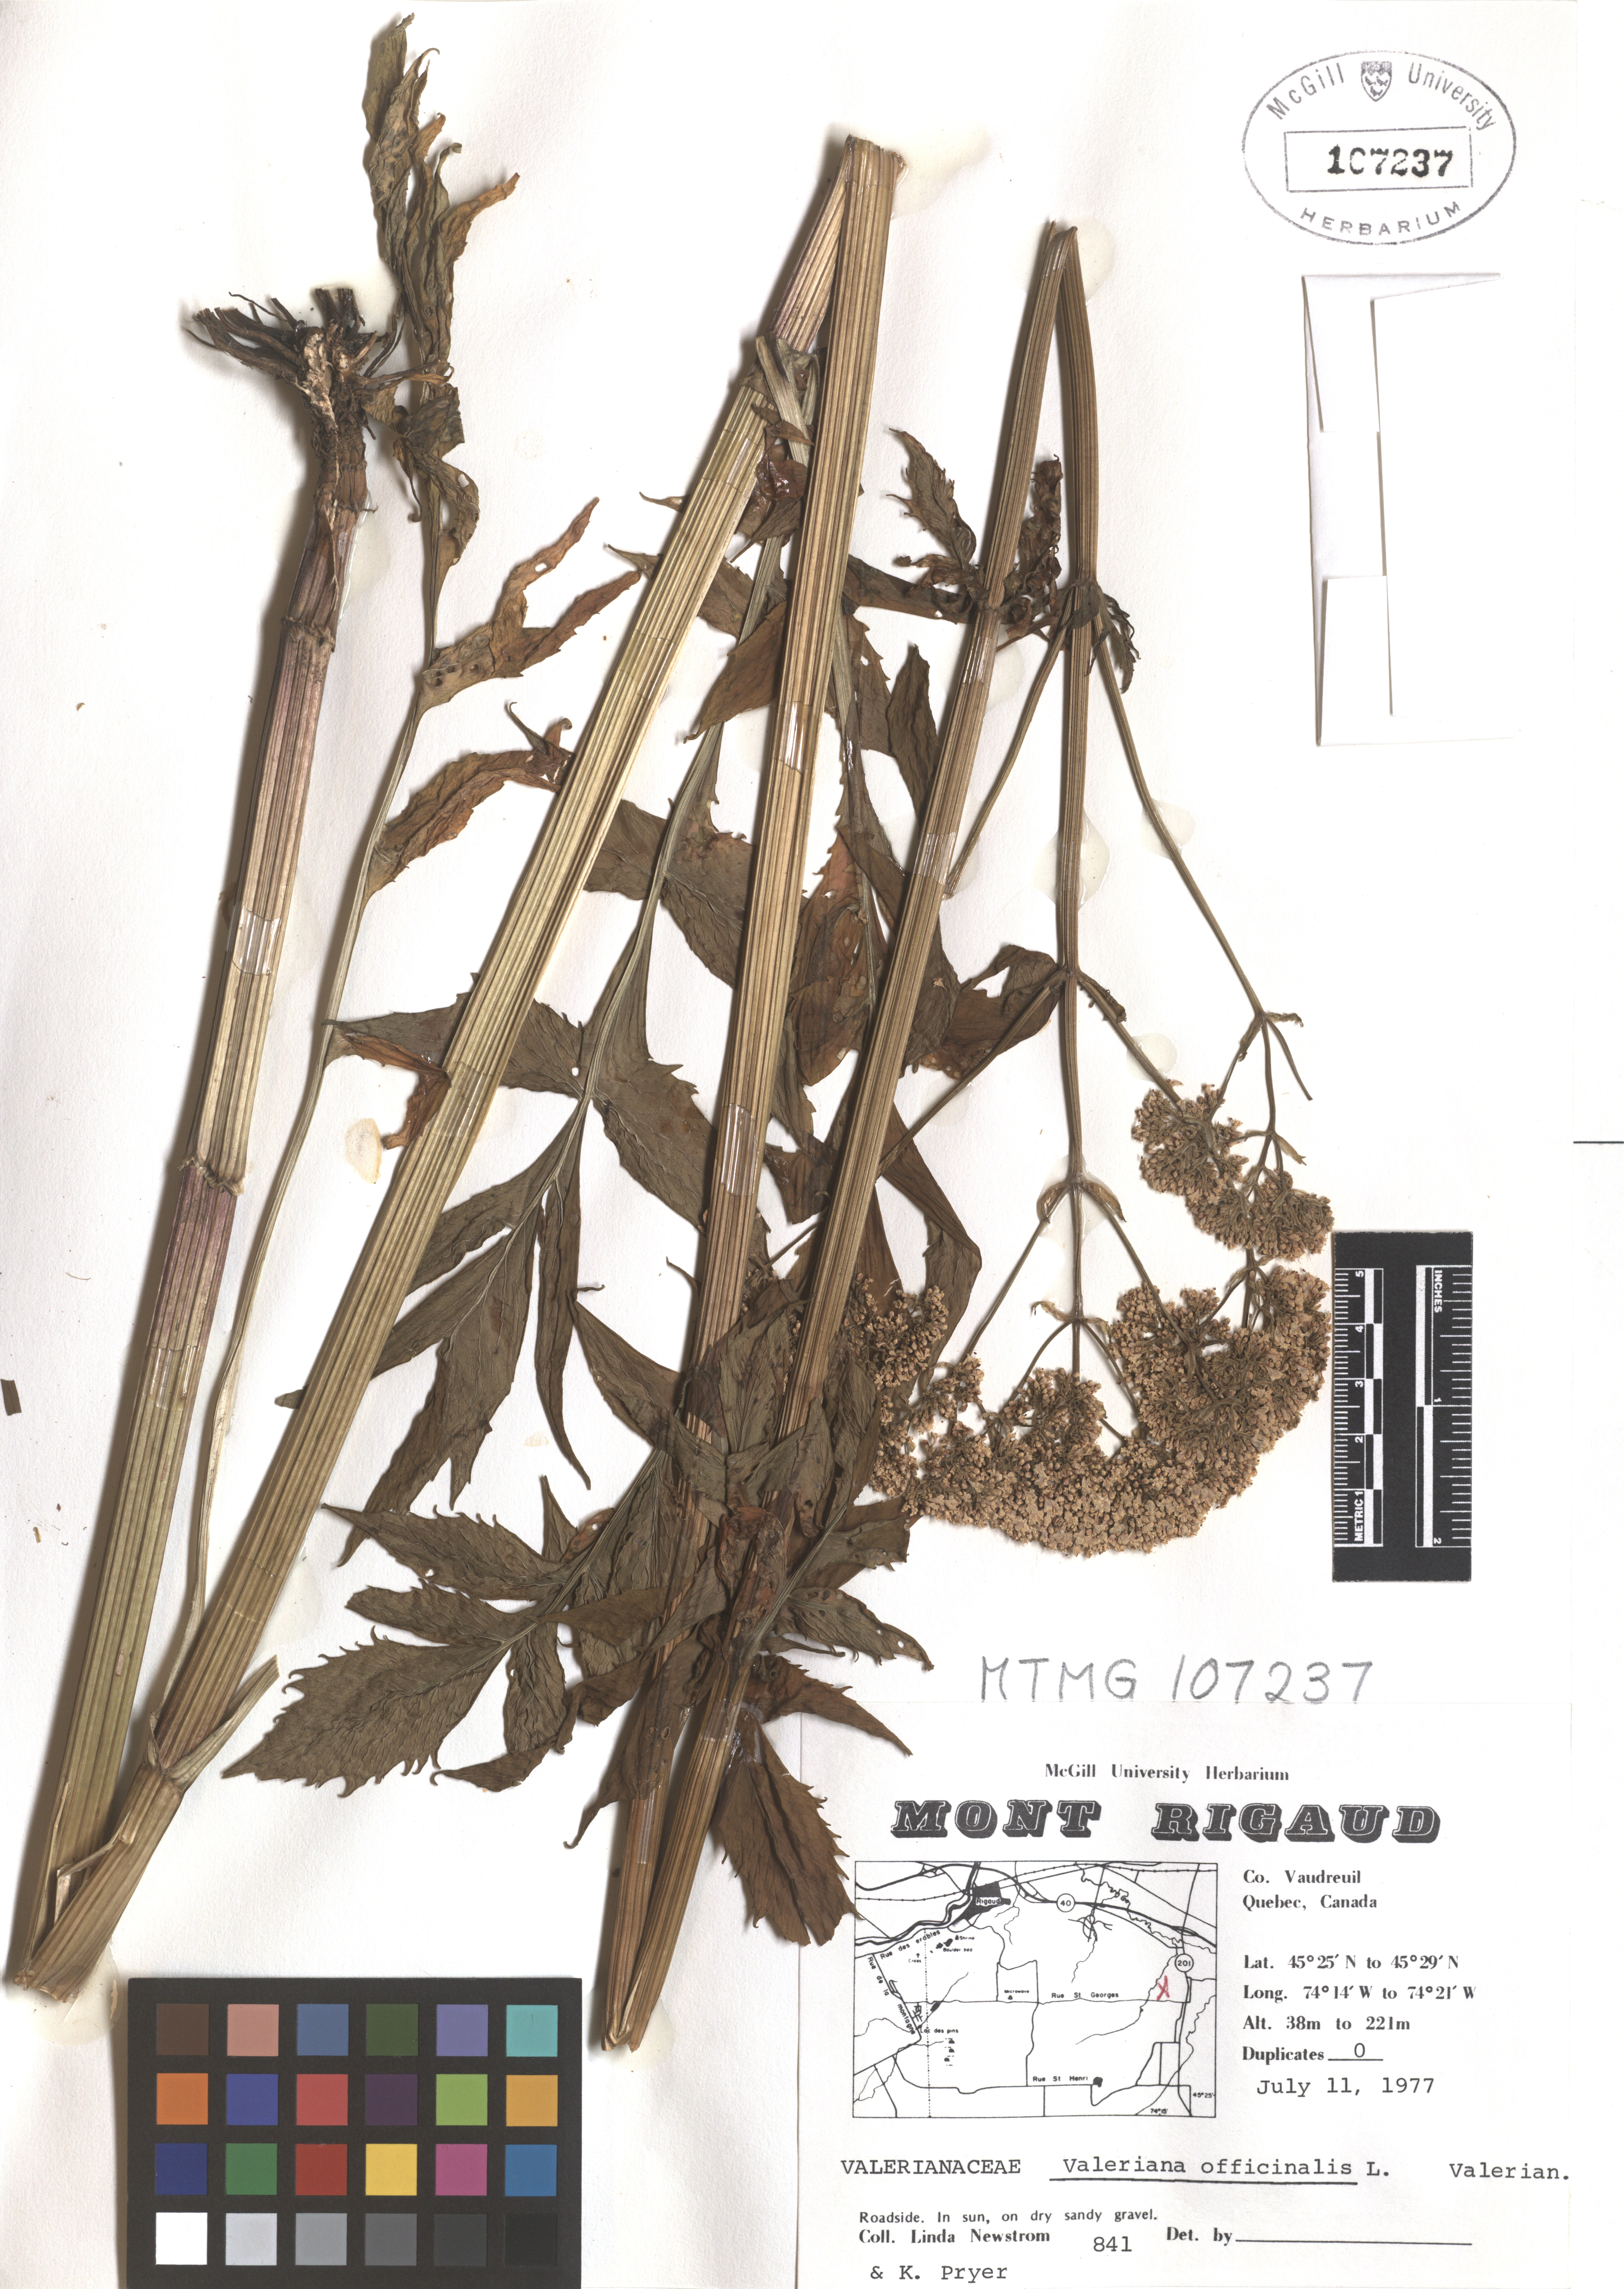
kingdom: Plantae
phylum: Tracheophyta
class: Magnoliopsida
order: Dipsacales
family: Caprifoliaceae
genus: Valeriana
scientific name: Valeriana officinalis
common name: Common valerian
